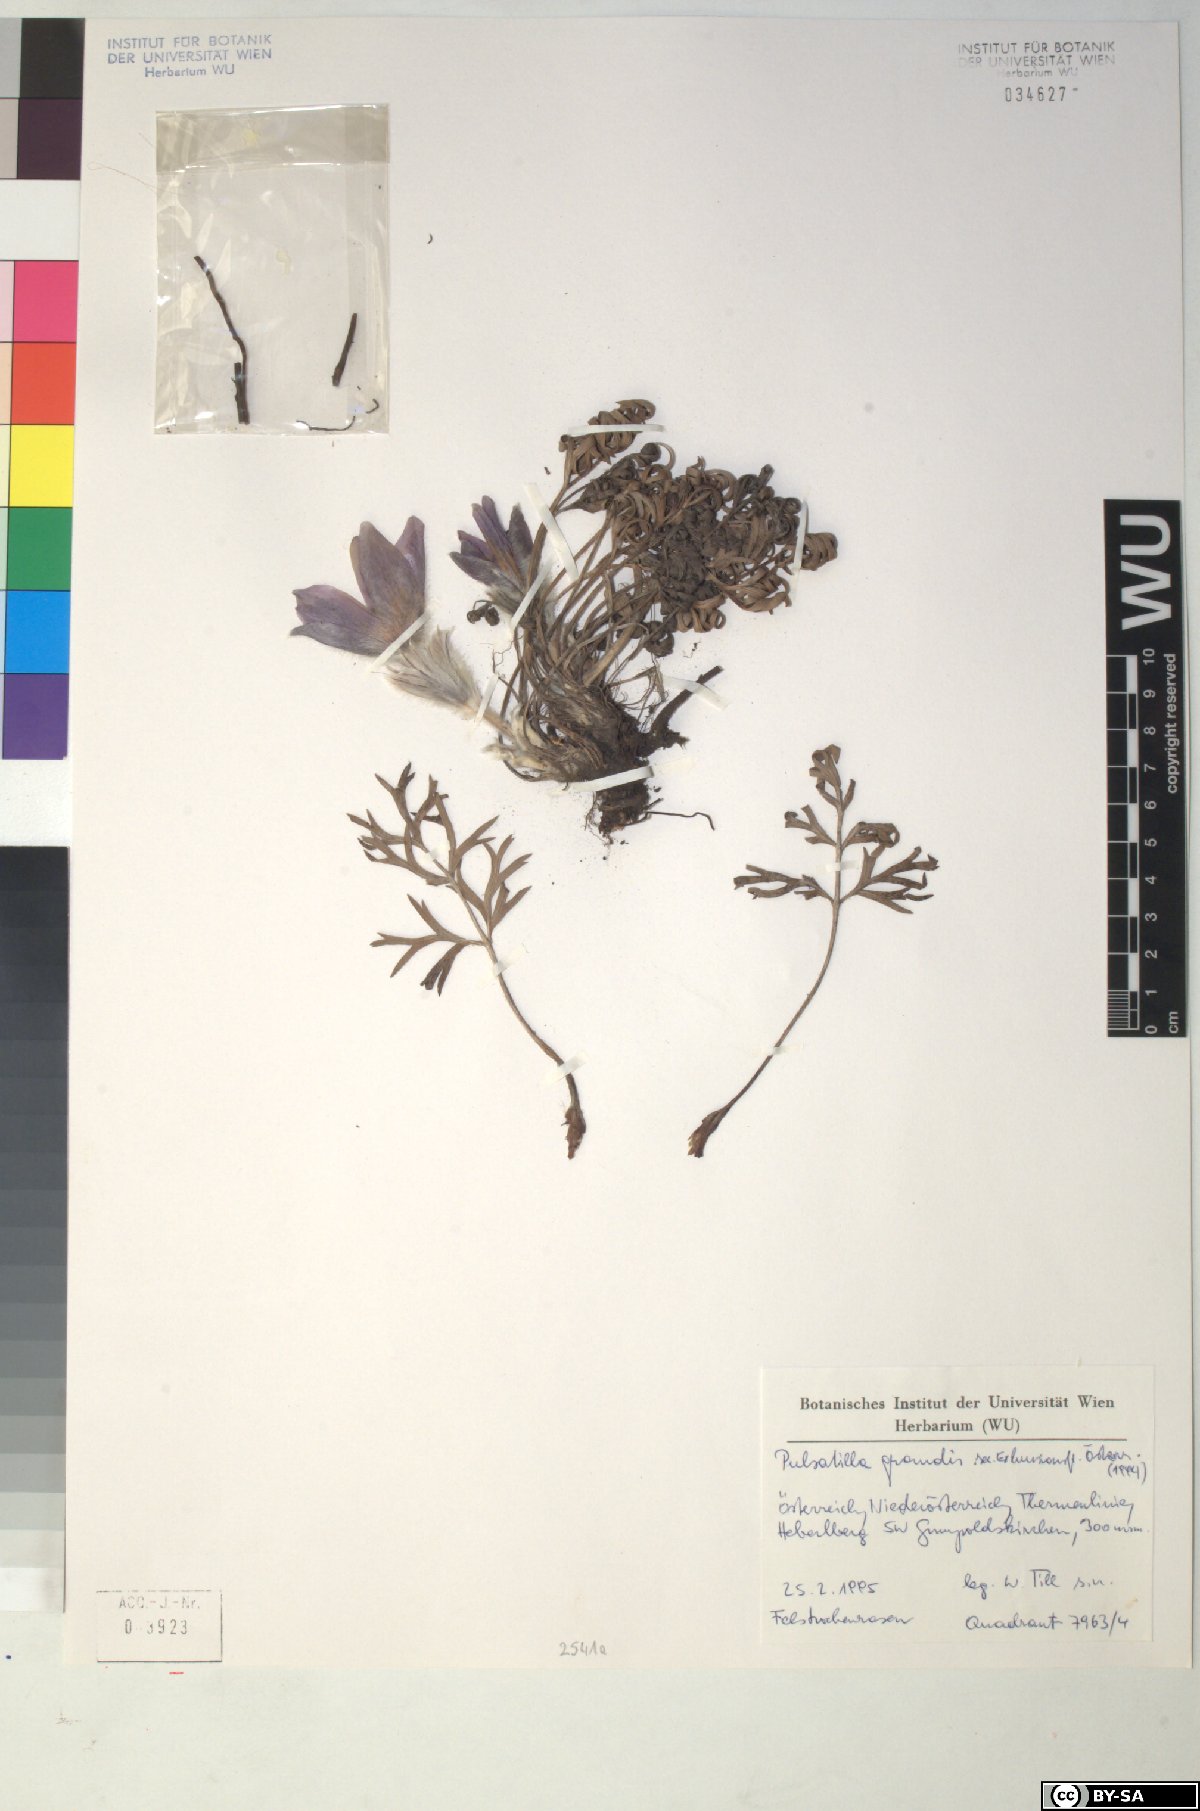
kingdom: Plantae
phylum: Tracheophyta
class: Magnoliopsida
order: Ranunculales
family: Ranunculaceae
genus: Pulsatilla
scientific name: Pulsatilla grandis
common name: Greater pasque flower
